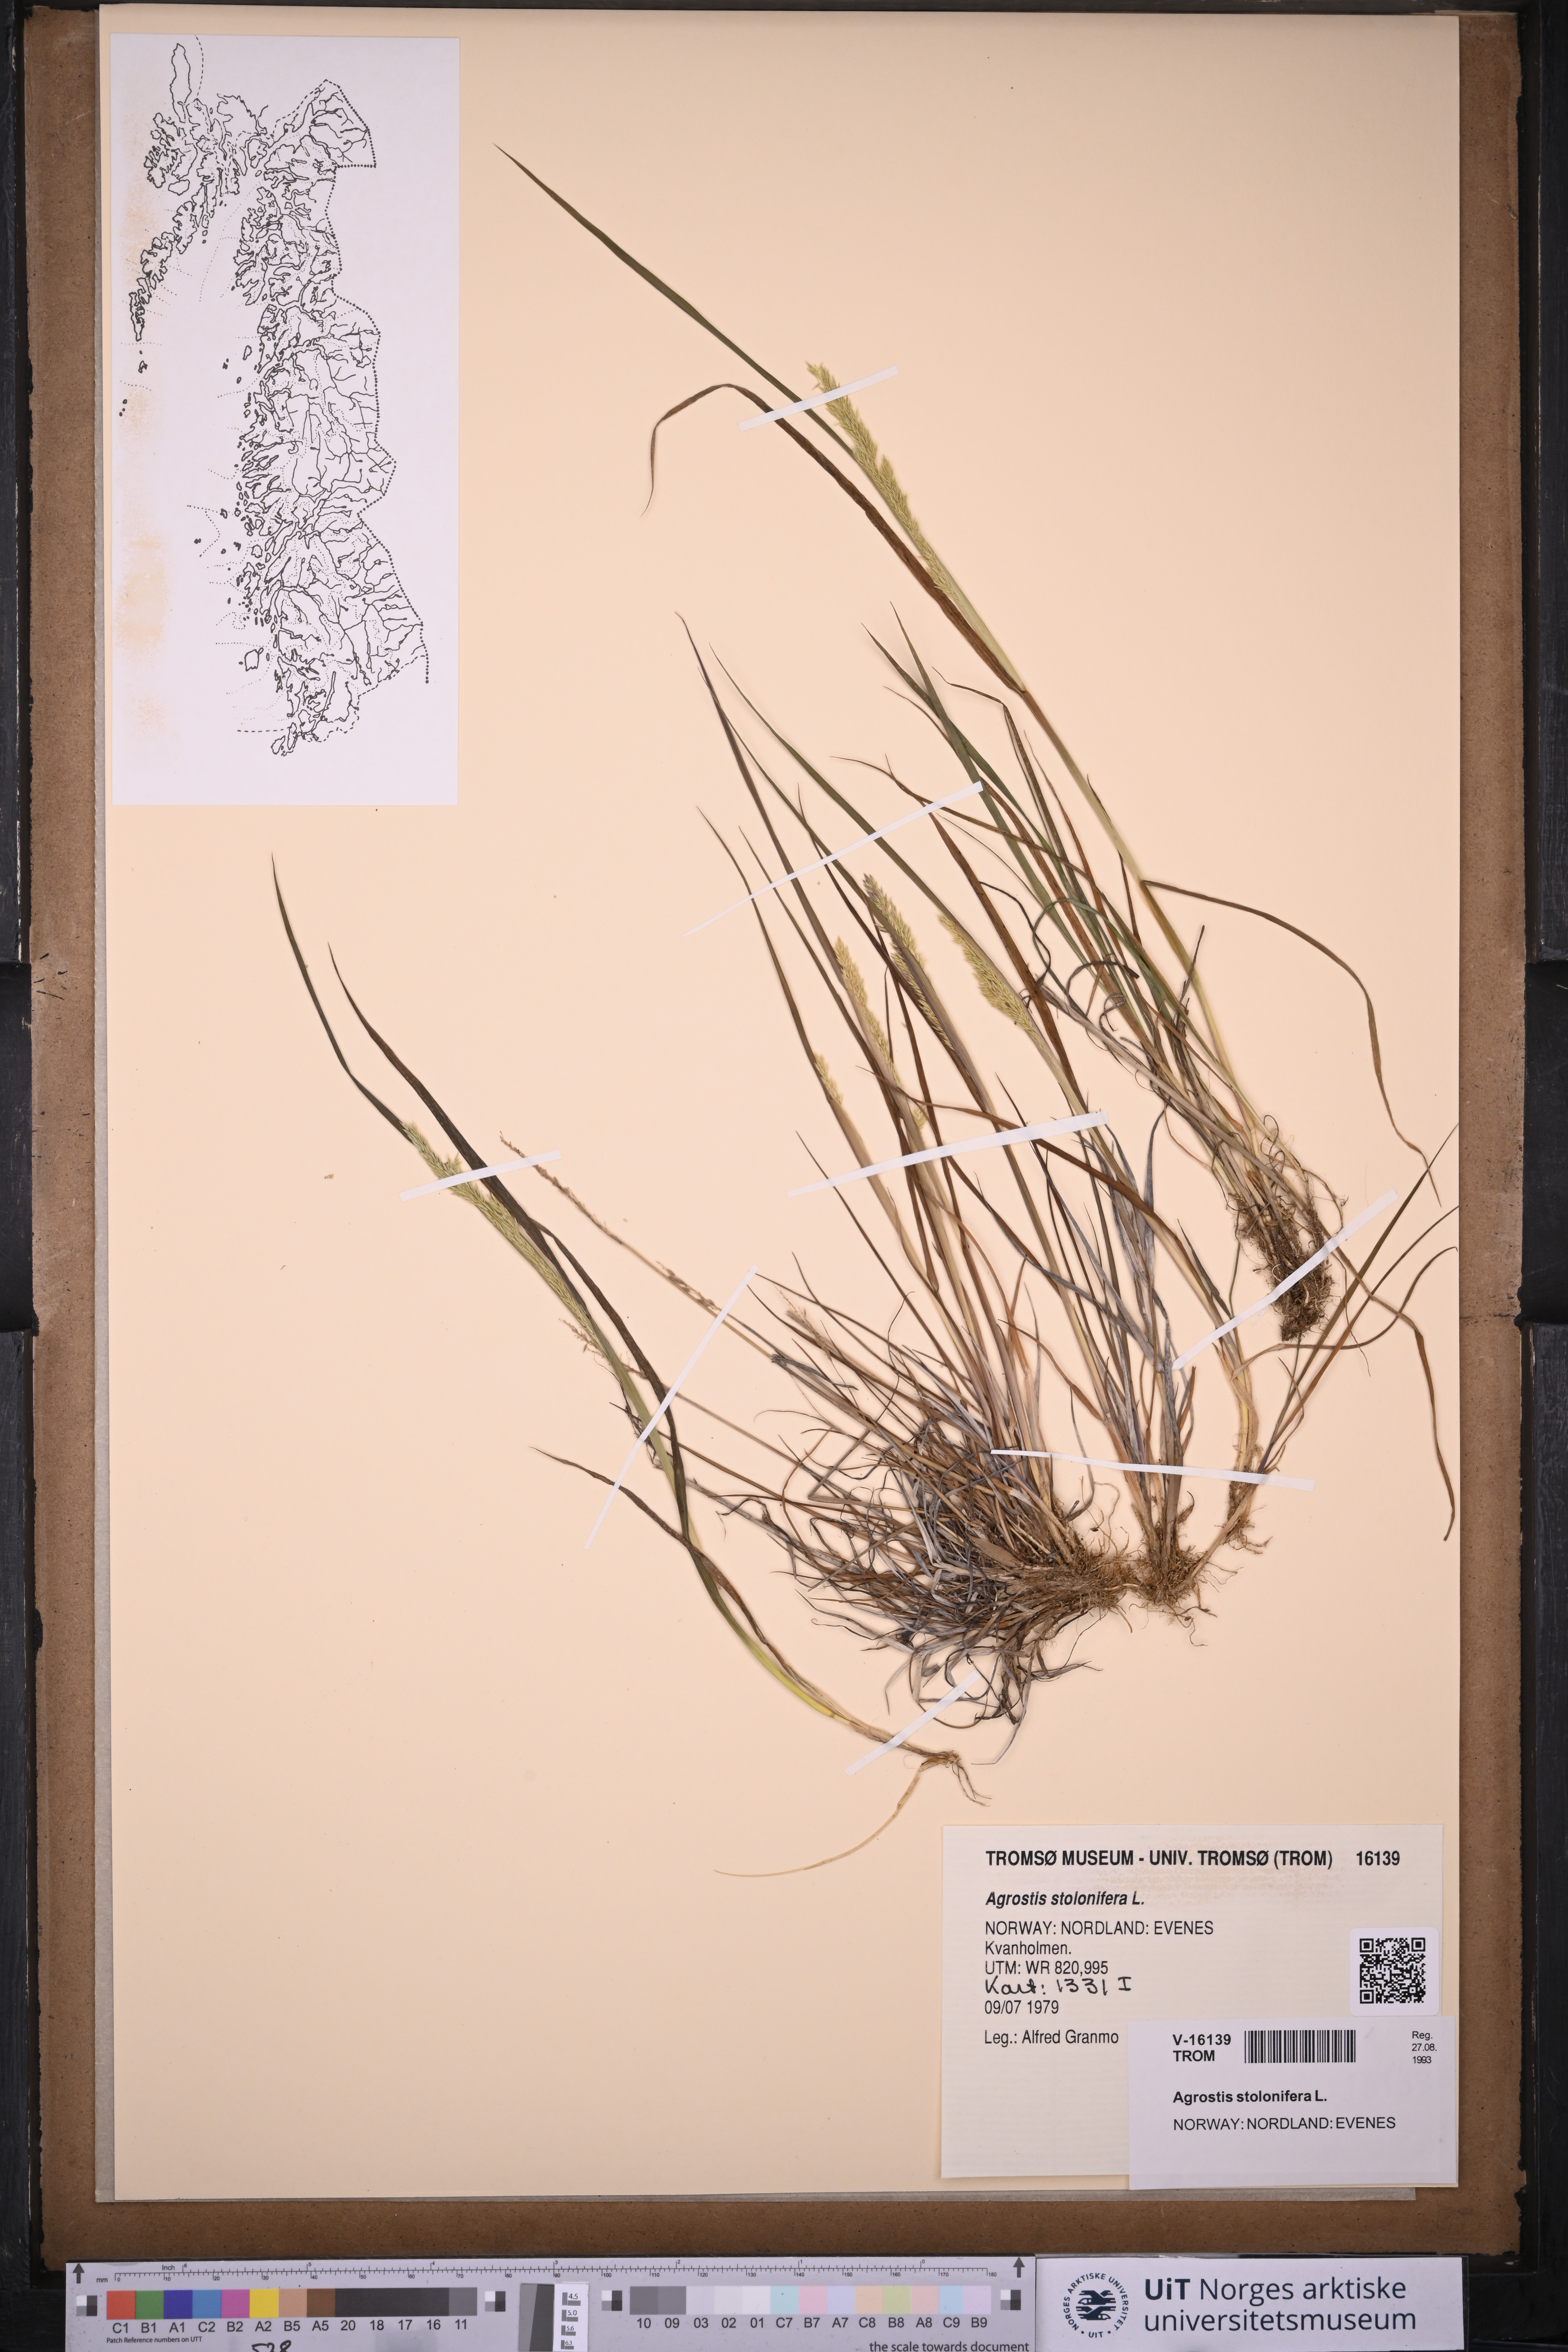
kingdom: Plantae
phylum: Tracheophyta
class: Liliopsida
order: Poales
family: Poaceae
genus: Agrostis
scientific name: Agrostis stolonifera
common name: Creeping bentgrass
